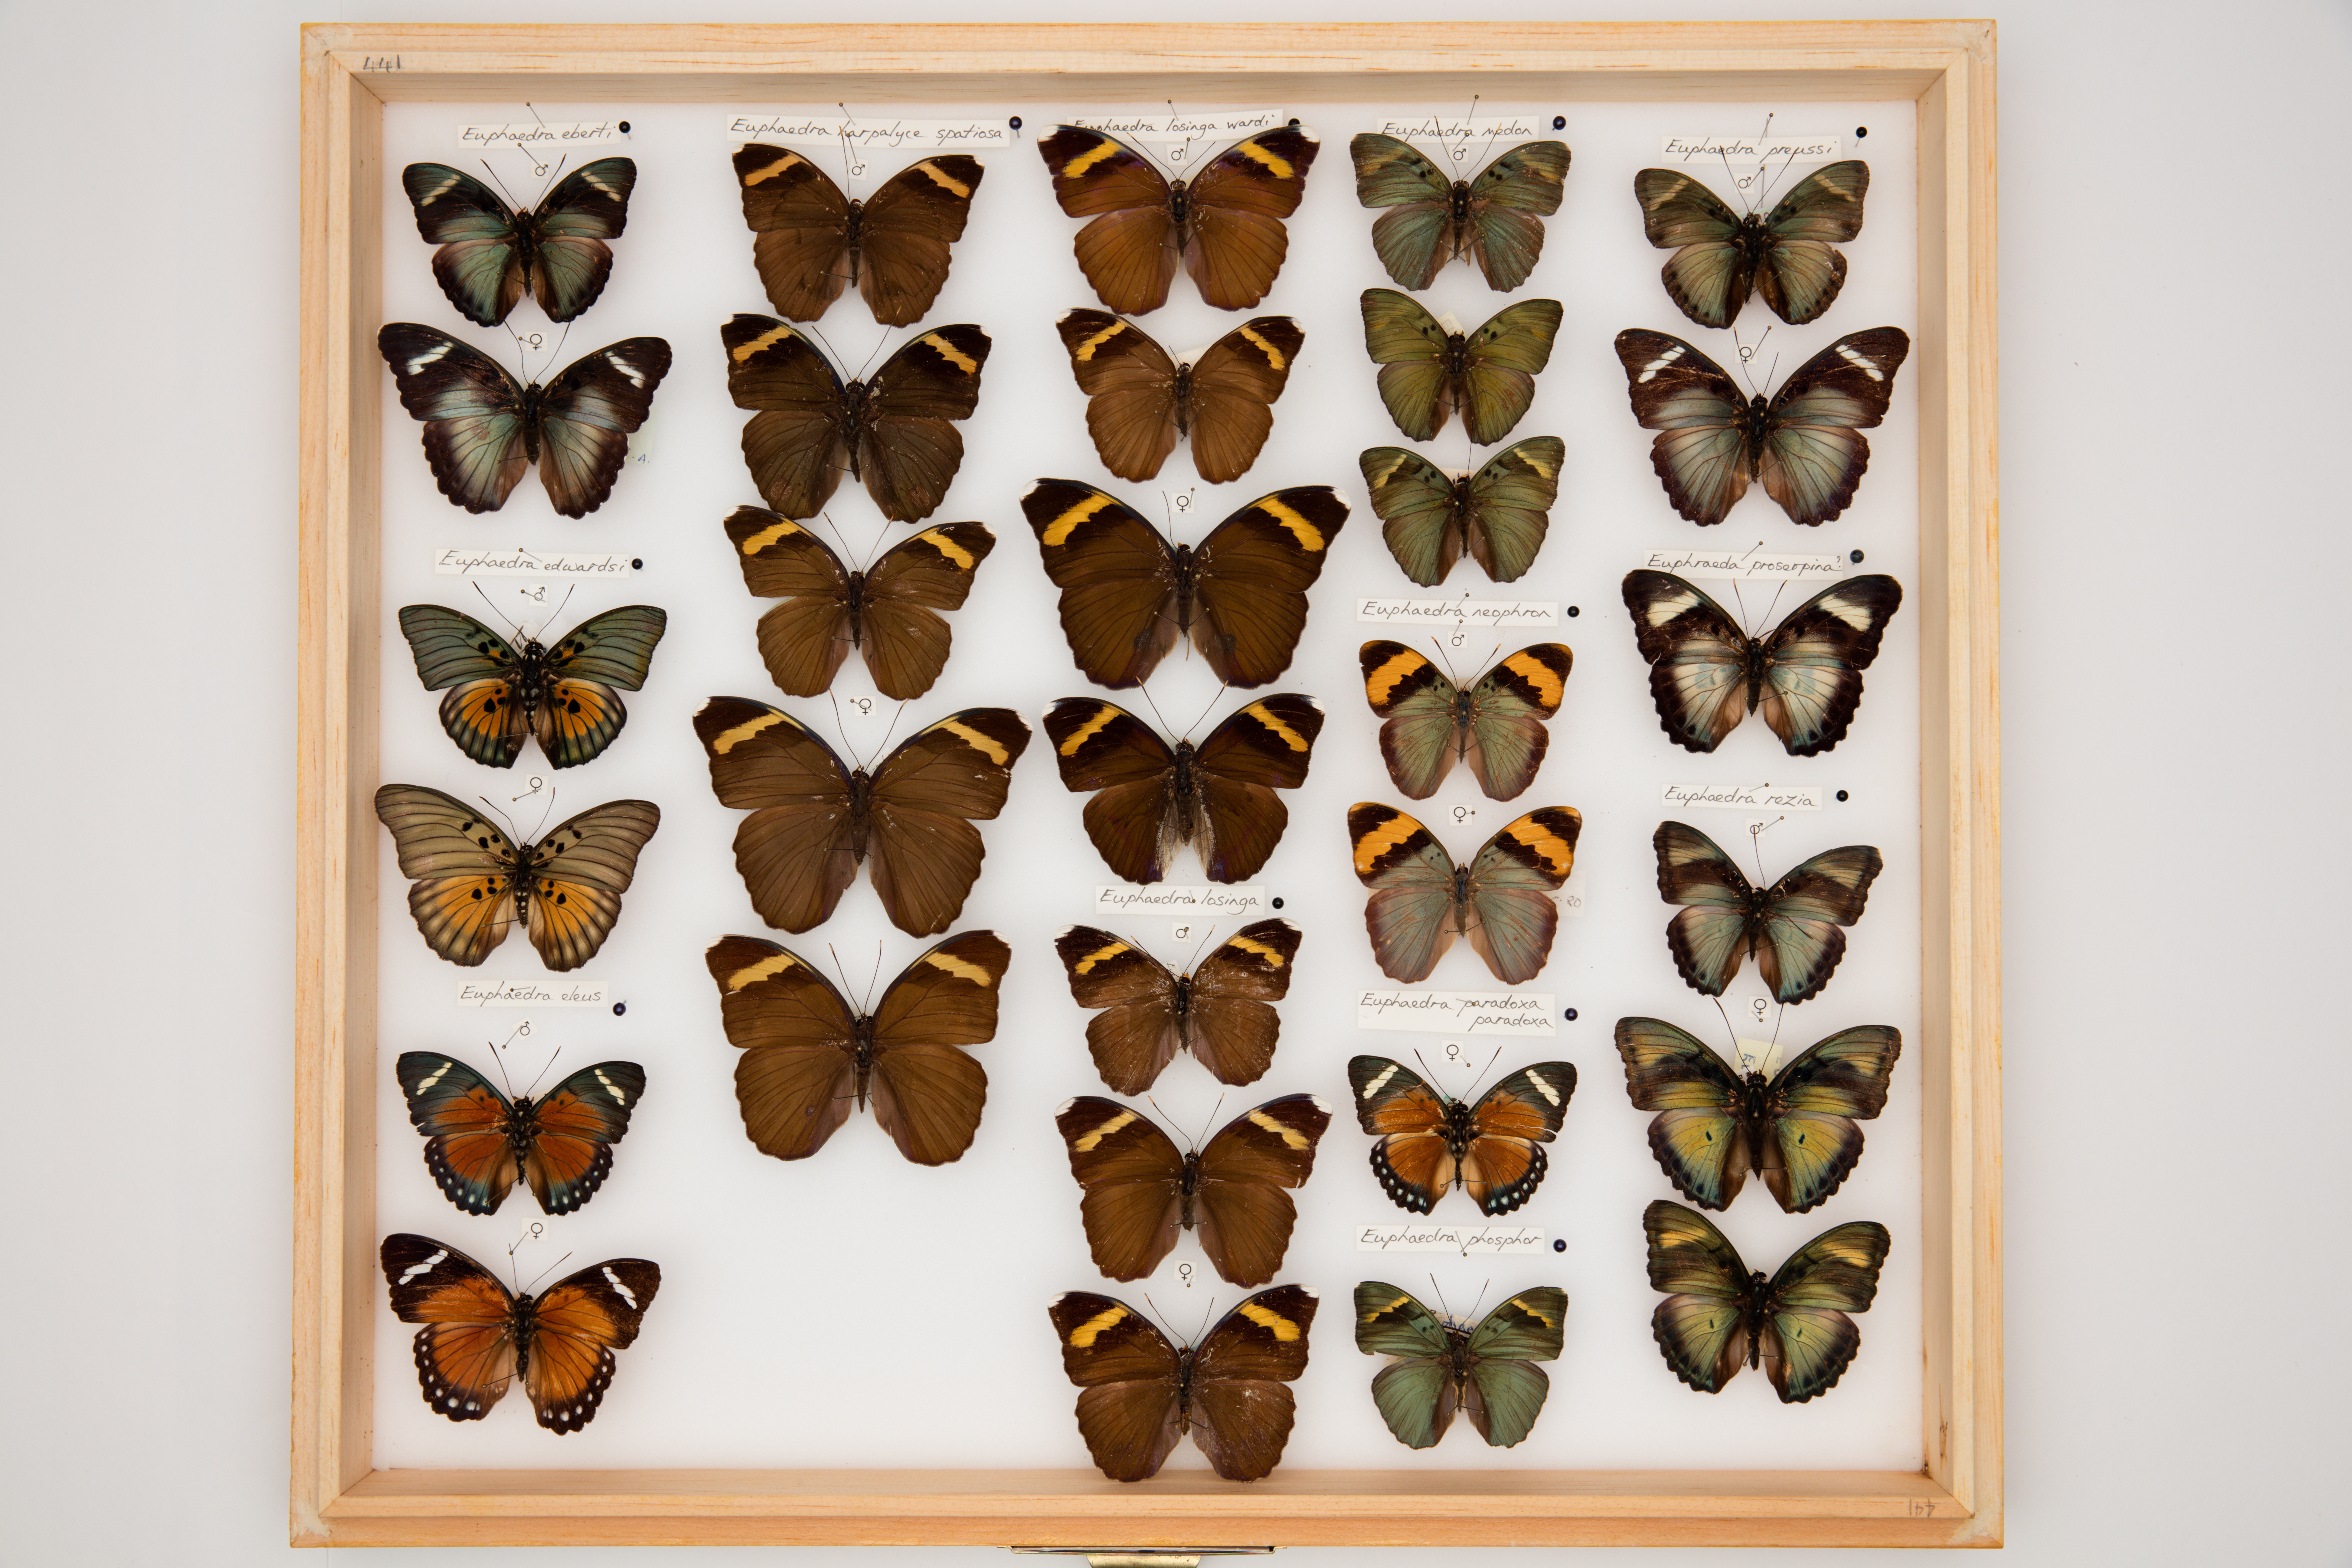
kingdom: Animalia
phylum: Arthropoda
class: Insecta
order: Lepidoptera
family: Nymphalidae
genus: Euphaedra
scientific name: Euphaedra medon
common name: Widespread forester
